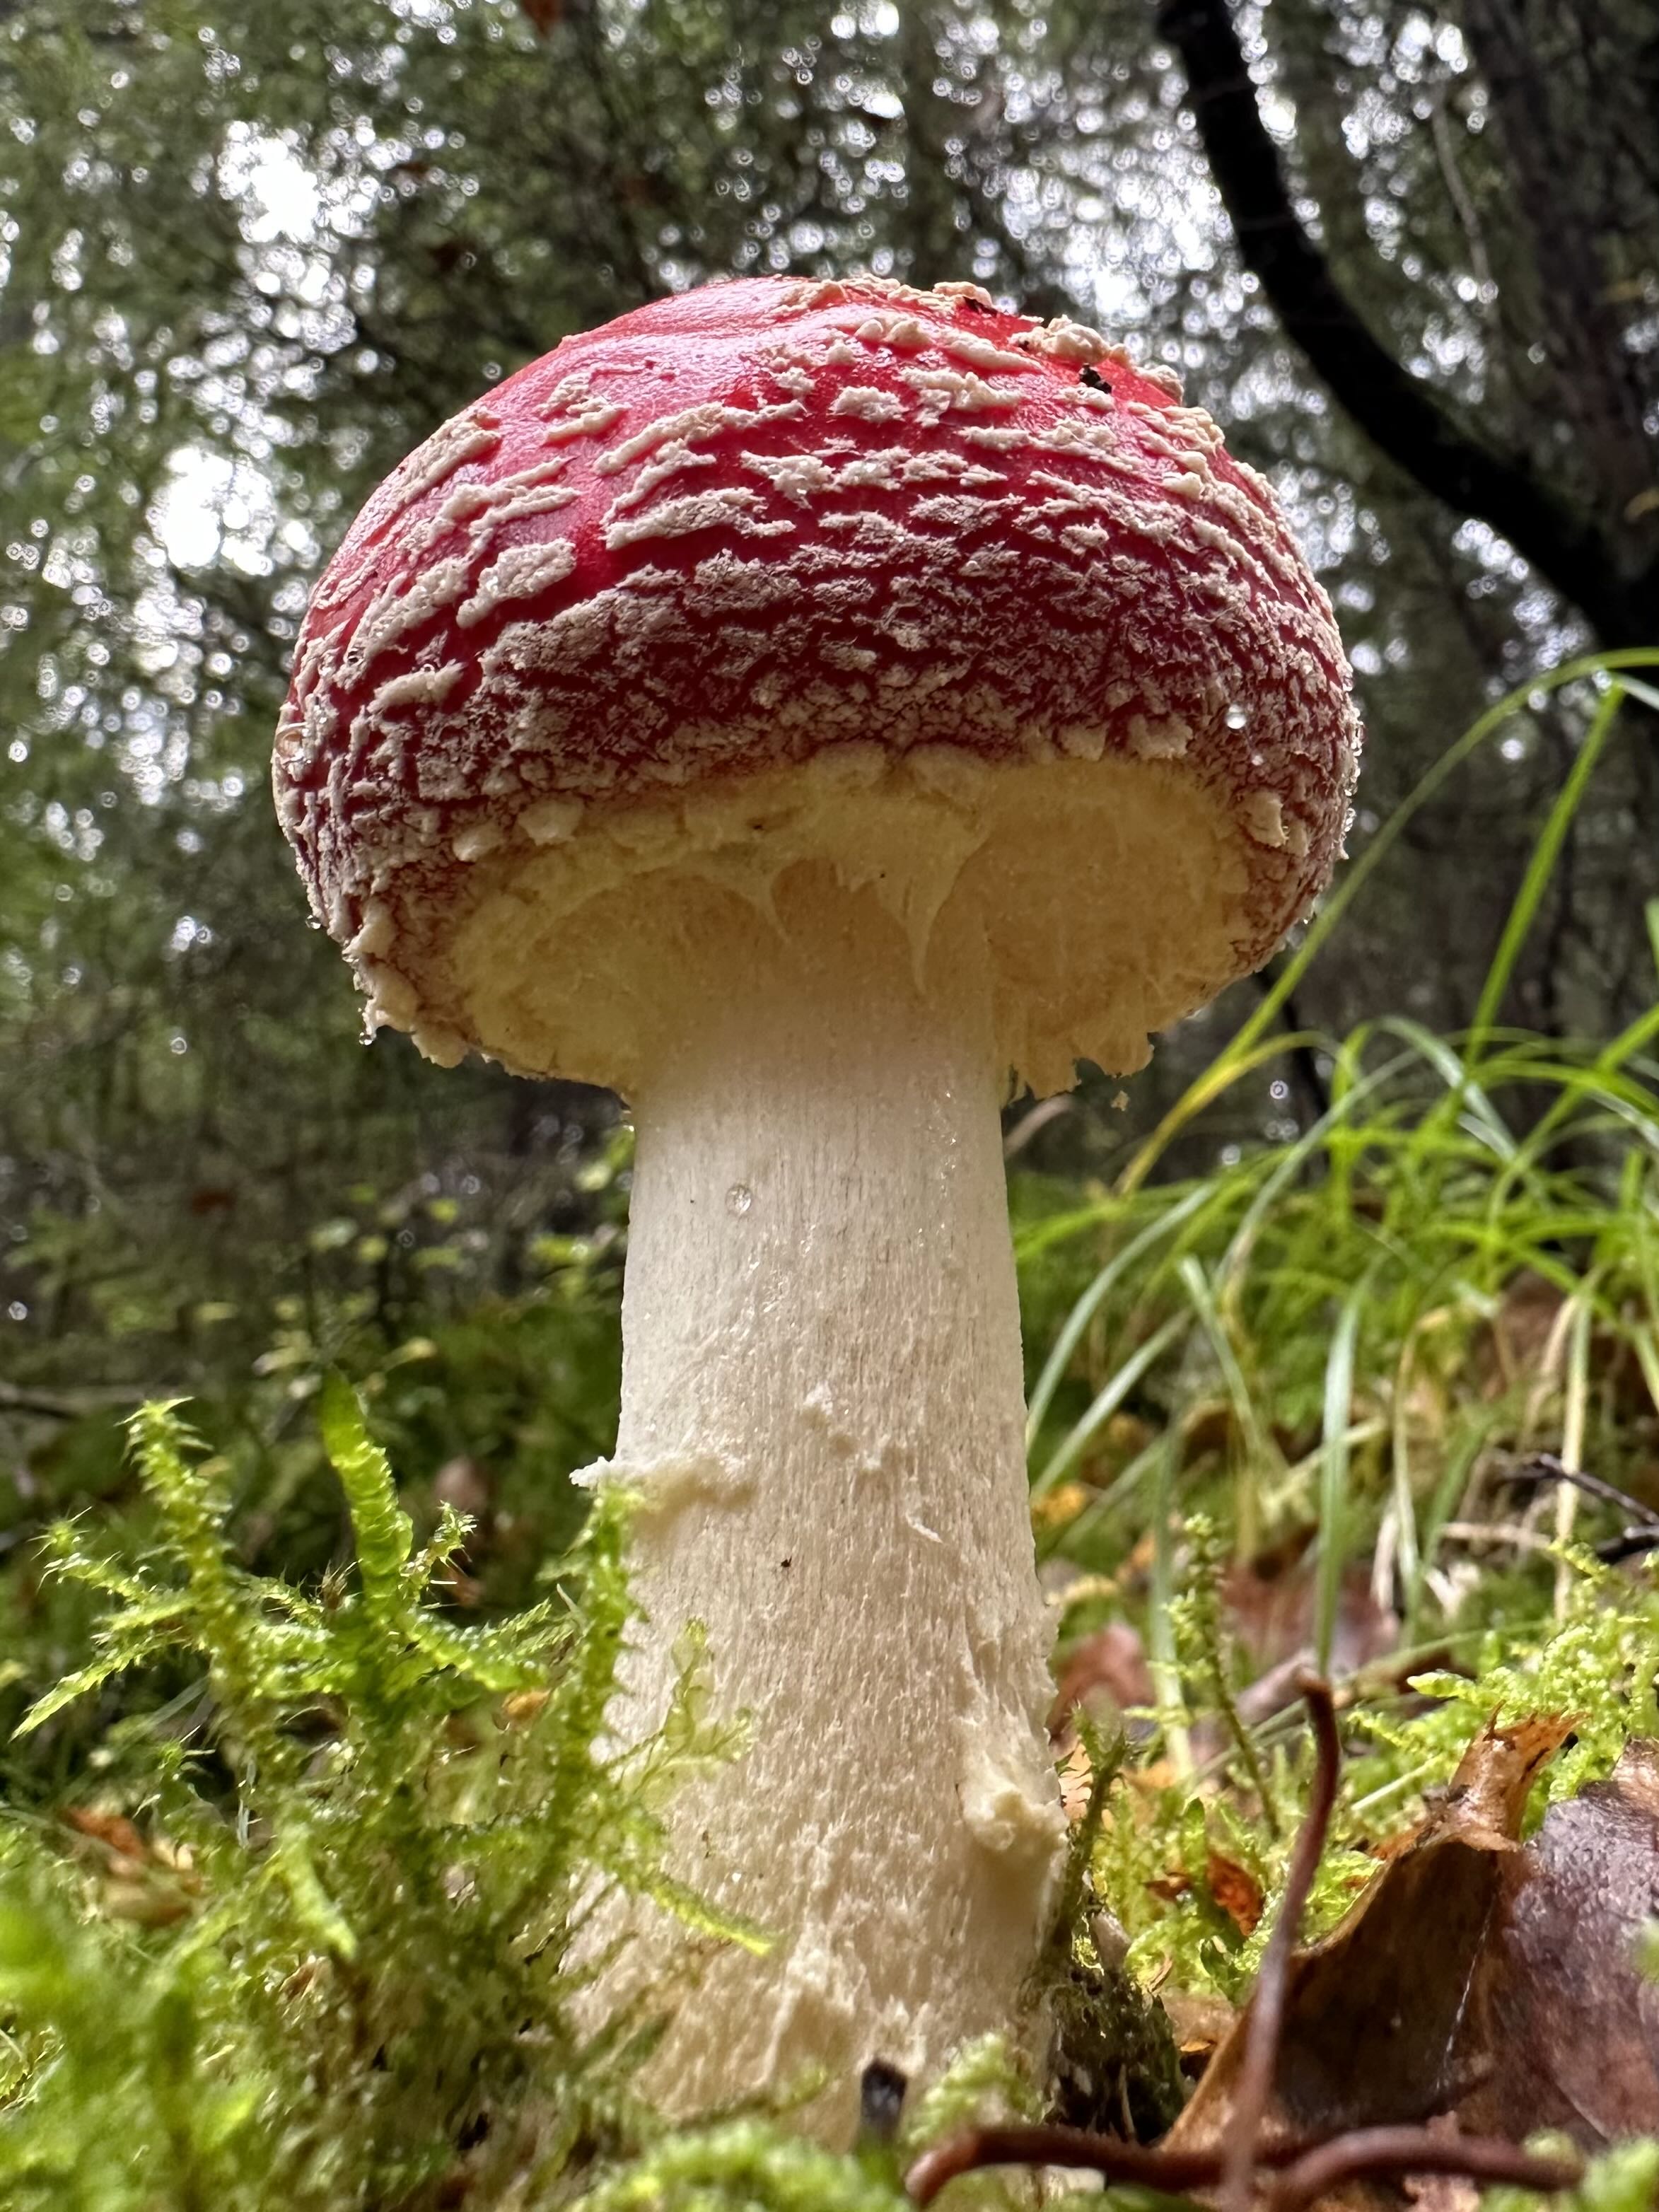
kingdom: Fungi
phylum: Basidiomycota
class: Agaricomycetes
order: Agaricales
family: Amanitaceae
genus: Amanita
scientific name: Amanita muscaria
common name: rød fluesvamp
